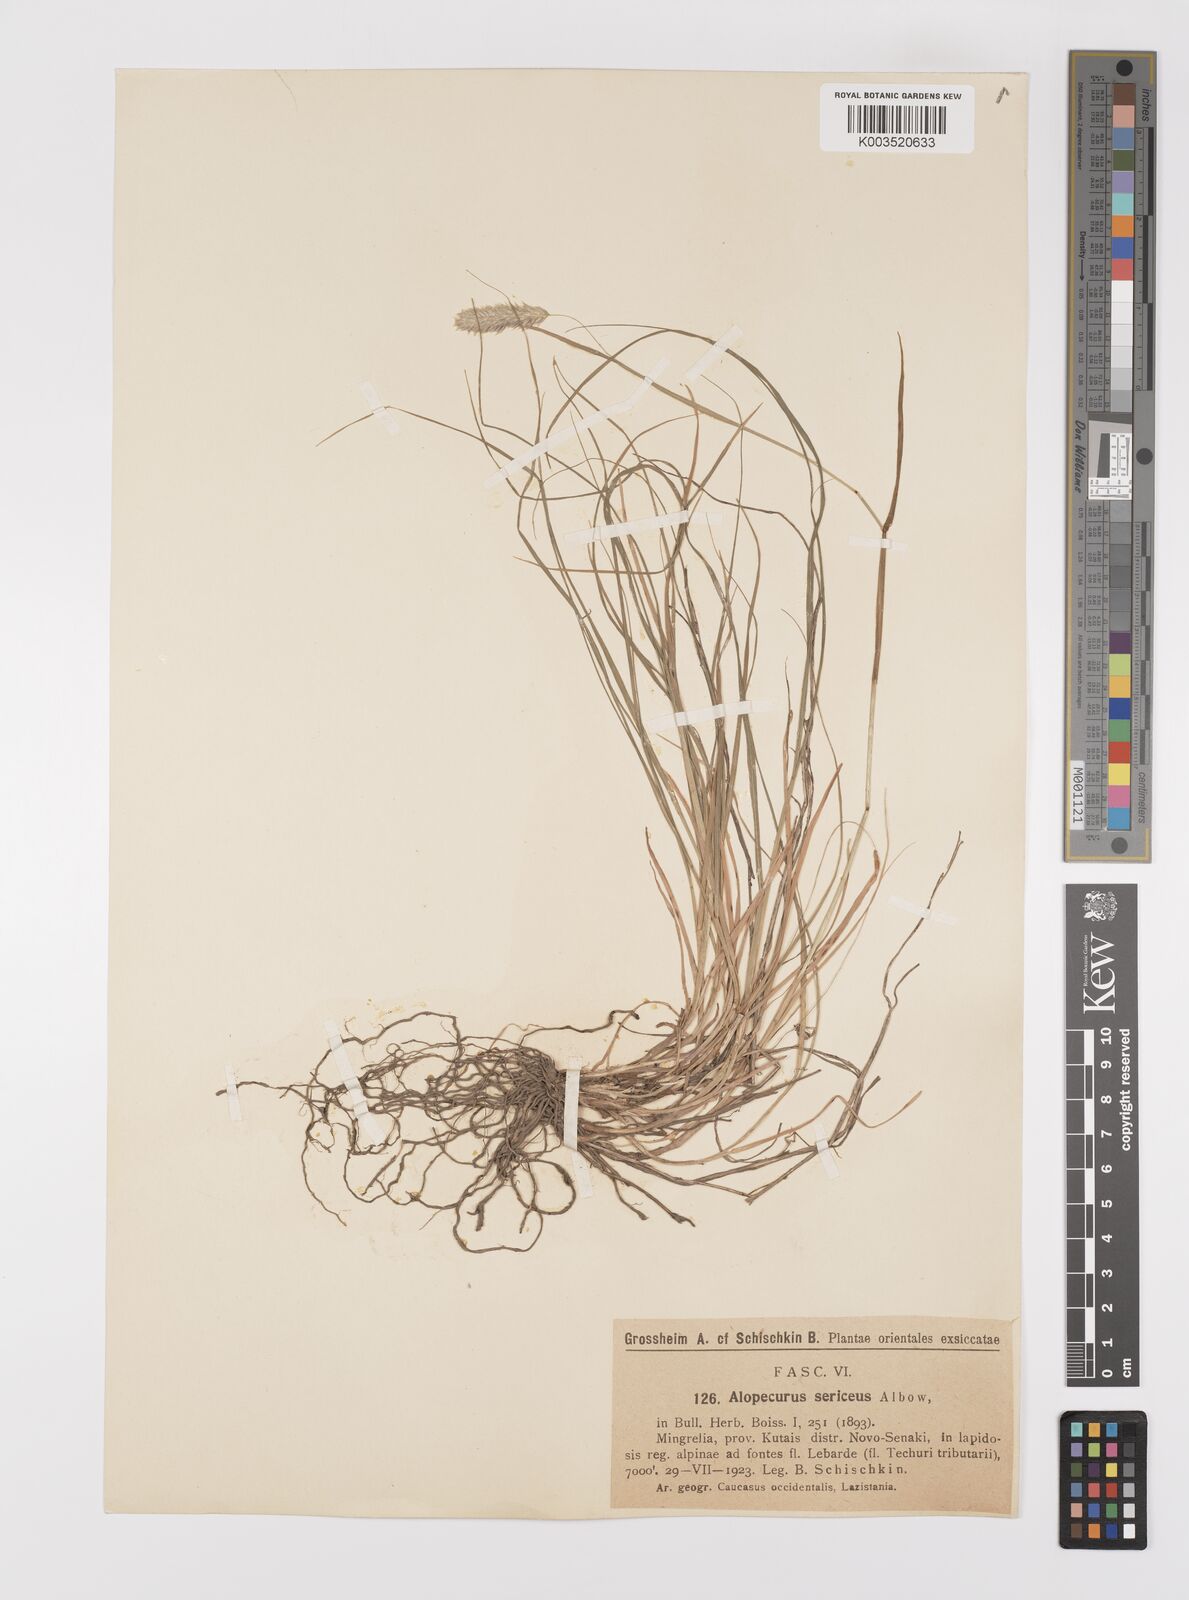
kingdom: Plantae
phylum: Tracheophyta
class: Liliopsida
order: Poales
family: Poaceae
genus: Alopecurus
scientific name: Alopecurus ponticus
